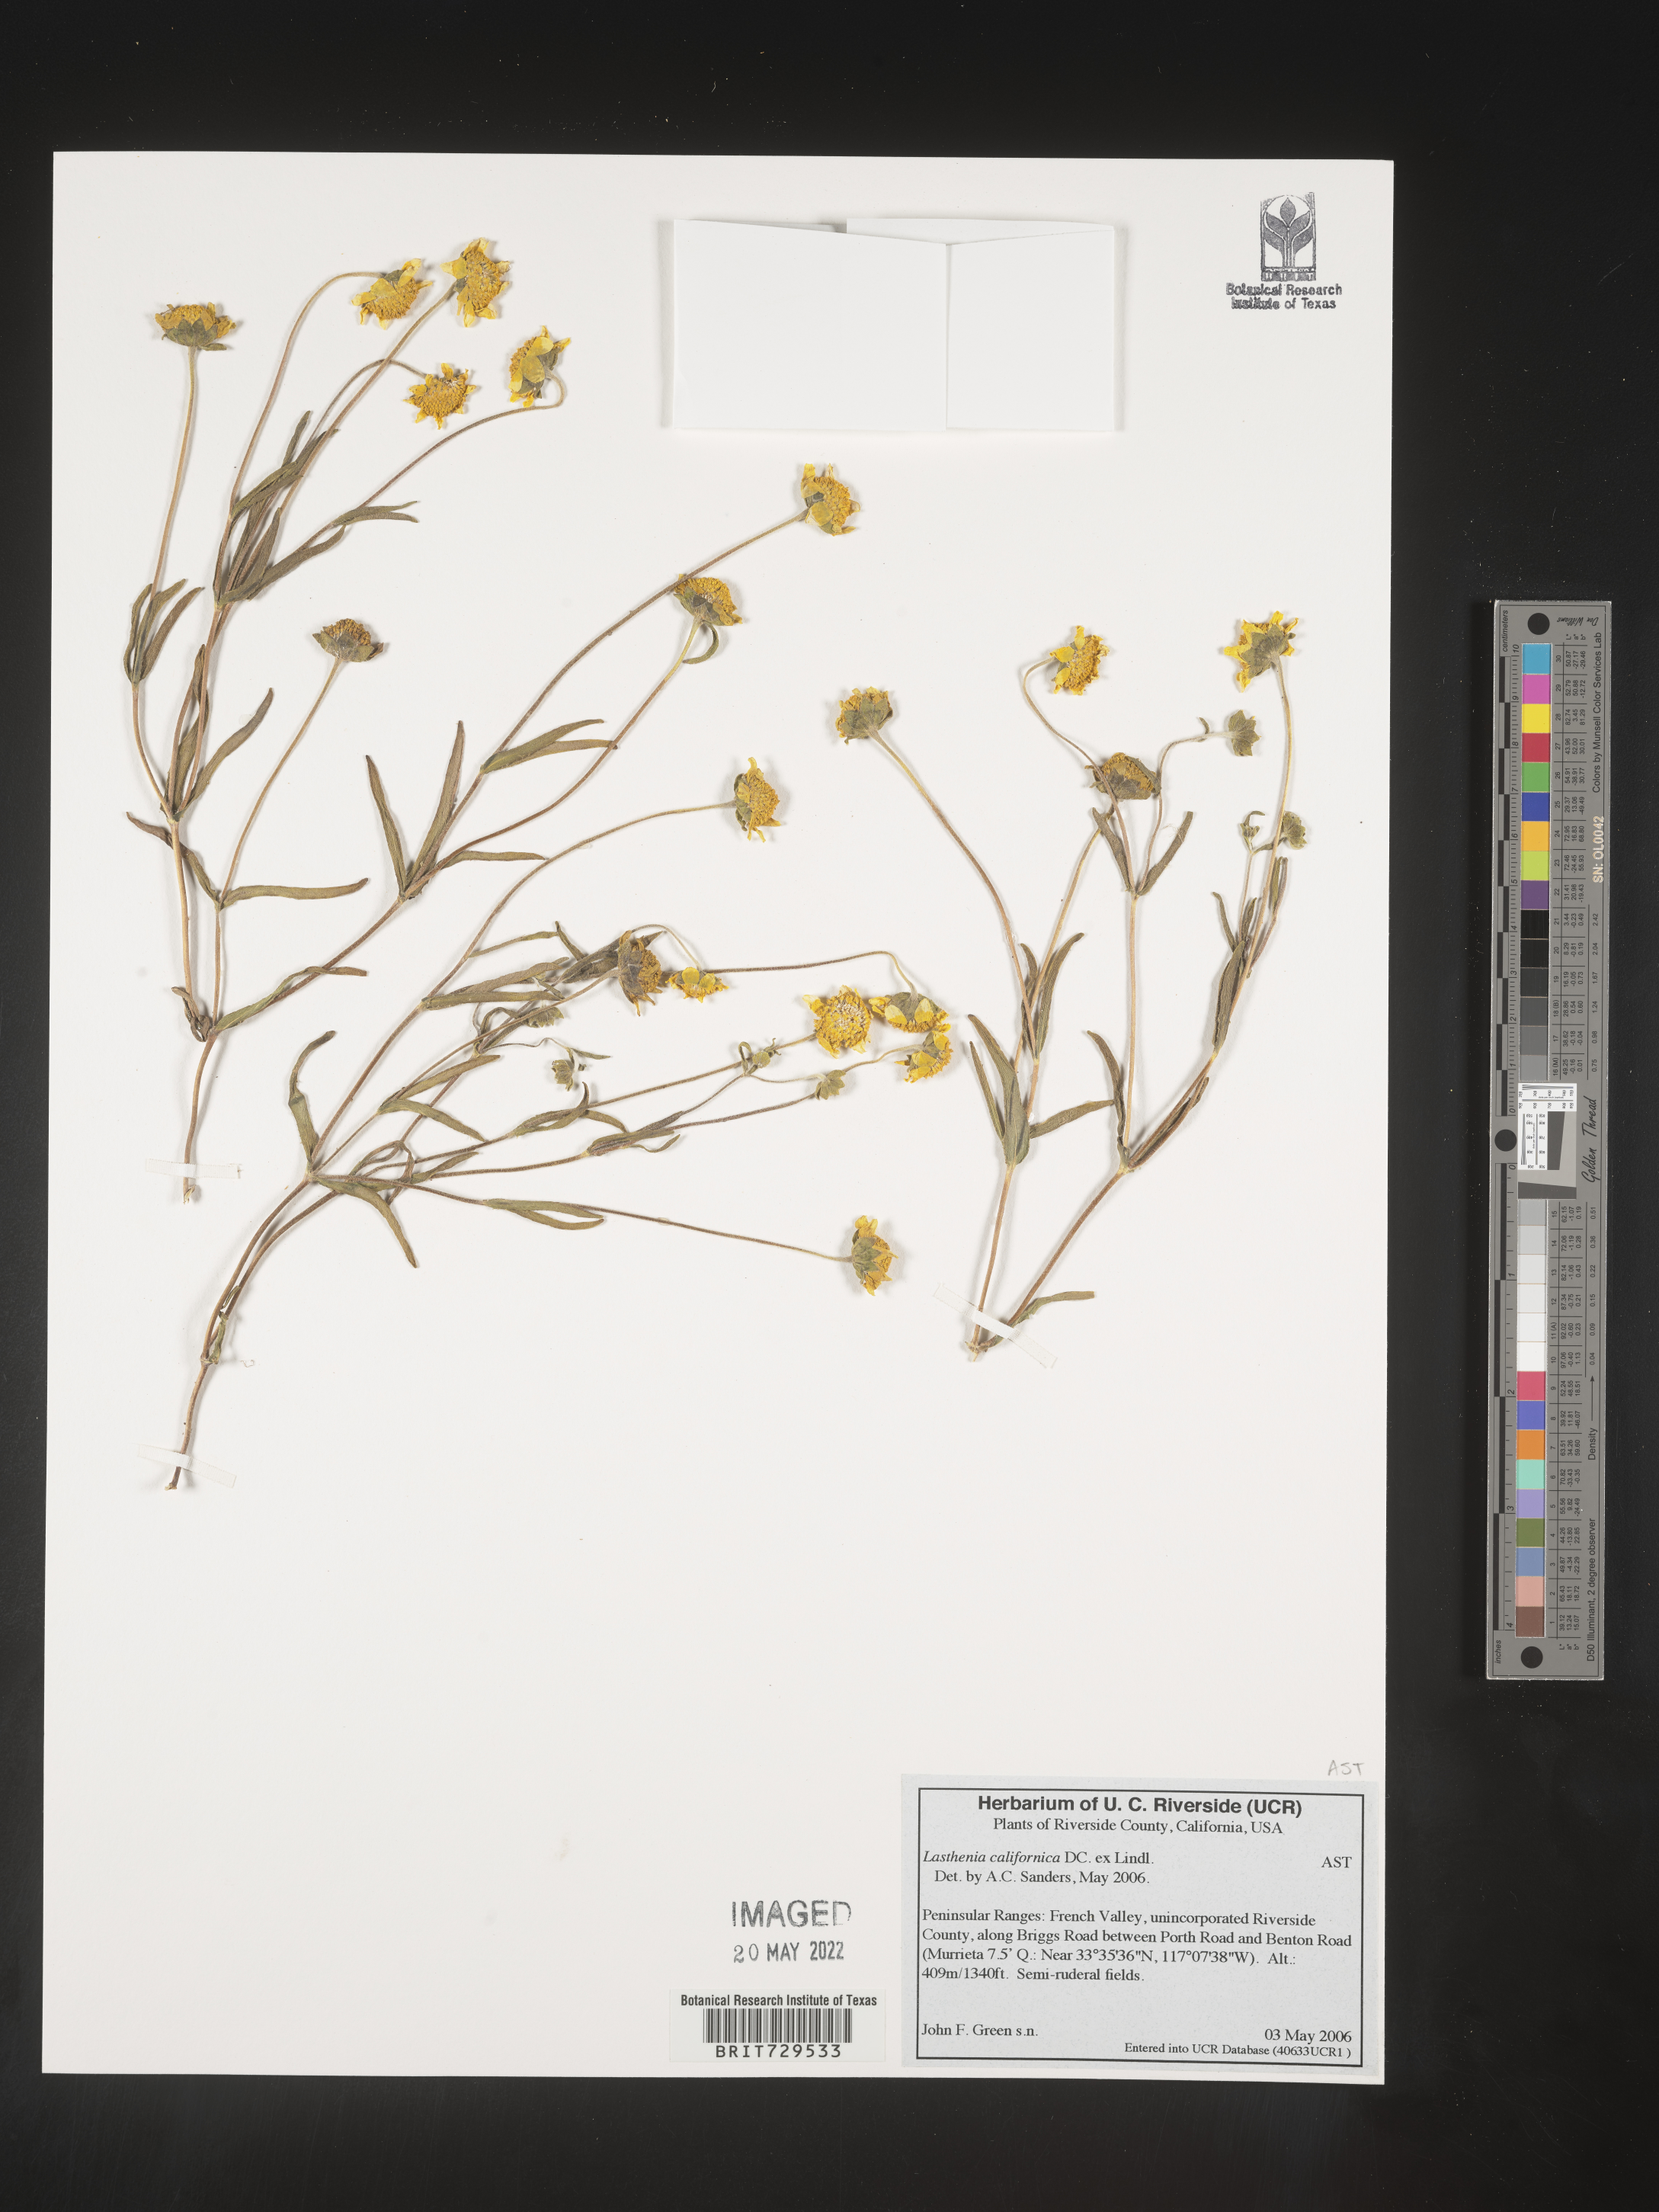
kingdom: Plantae
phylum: Tracheophyta
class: Magnoliopsida
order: Asterales
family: Asteraceae
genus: Lasthenia
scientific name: Lasthenia
